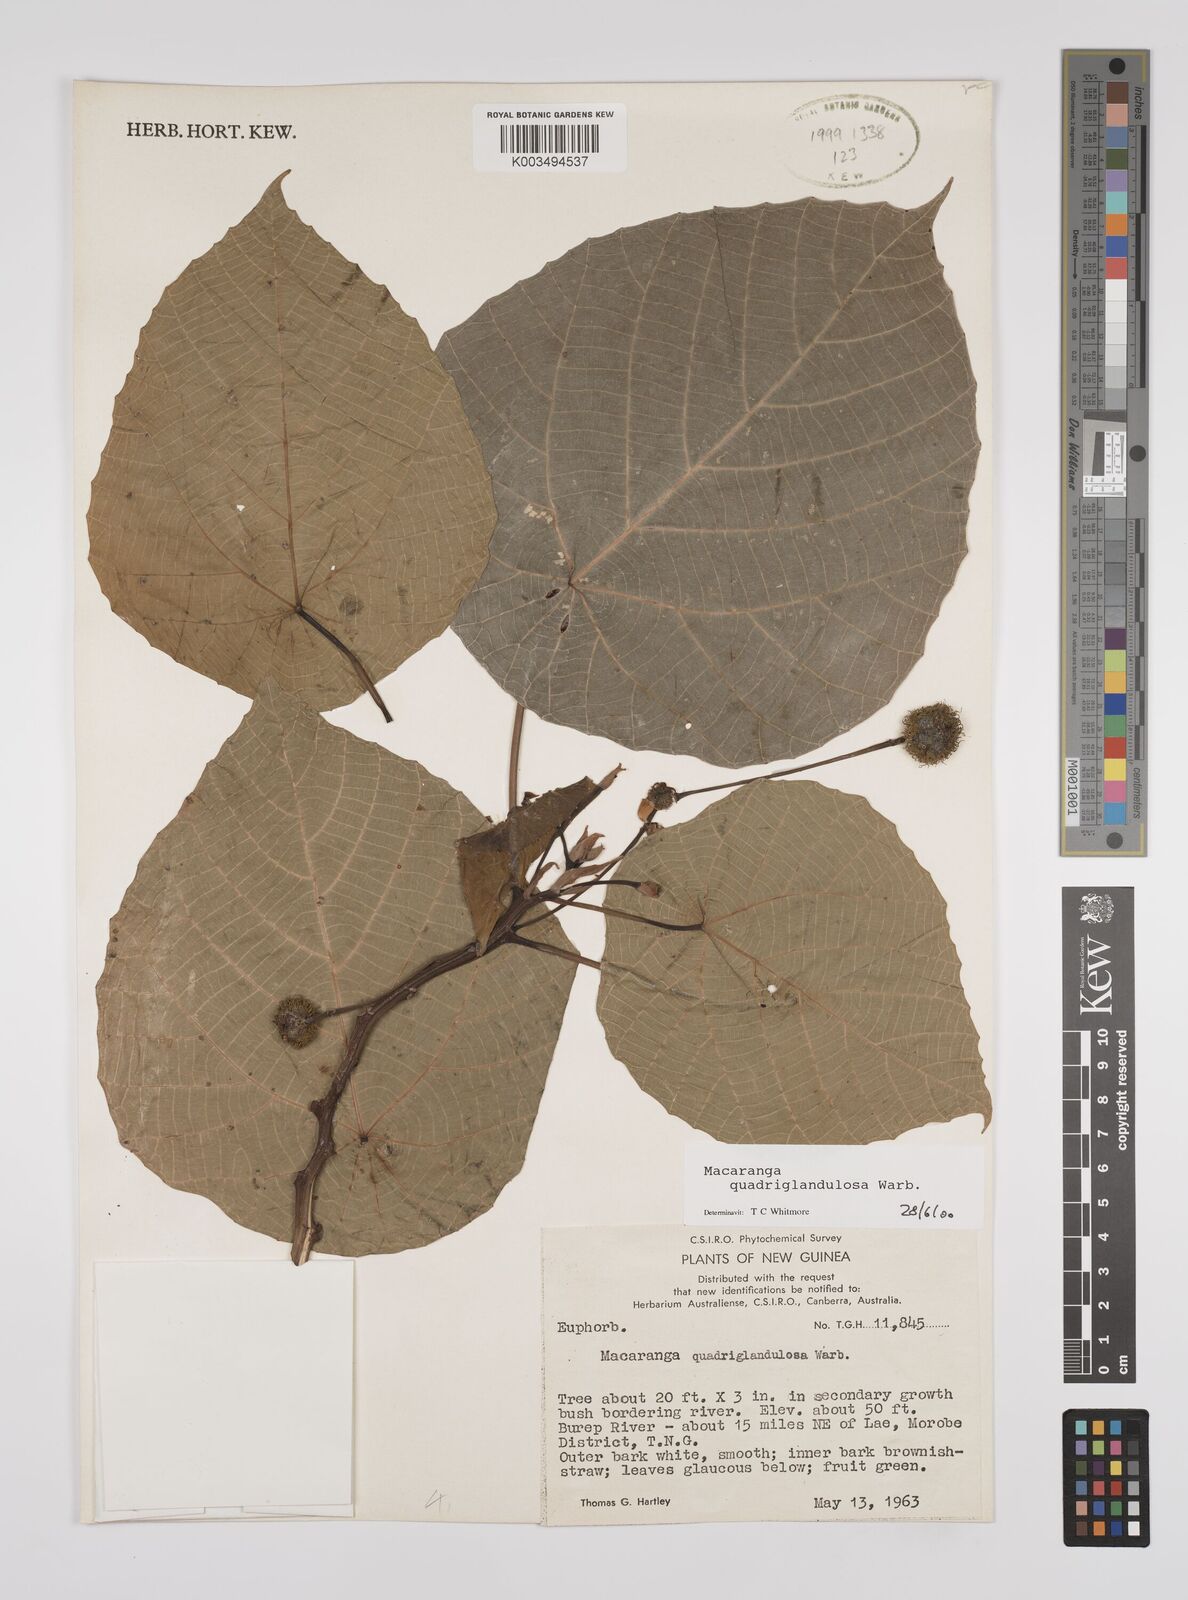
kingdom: Plantae
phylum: Tracheophyta
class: Magnoliopsida
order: Malpighiales
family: Euphorbiaceae
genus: Macaranga
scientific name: Macaranga quadriglandulosa
